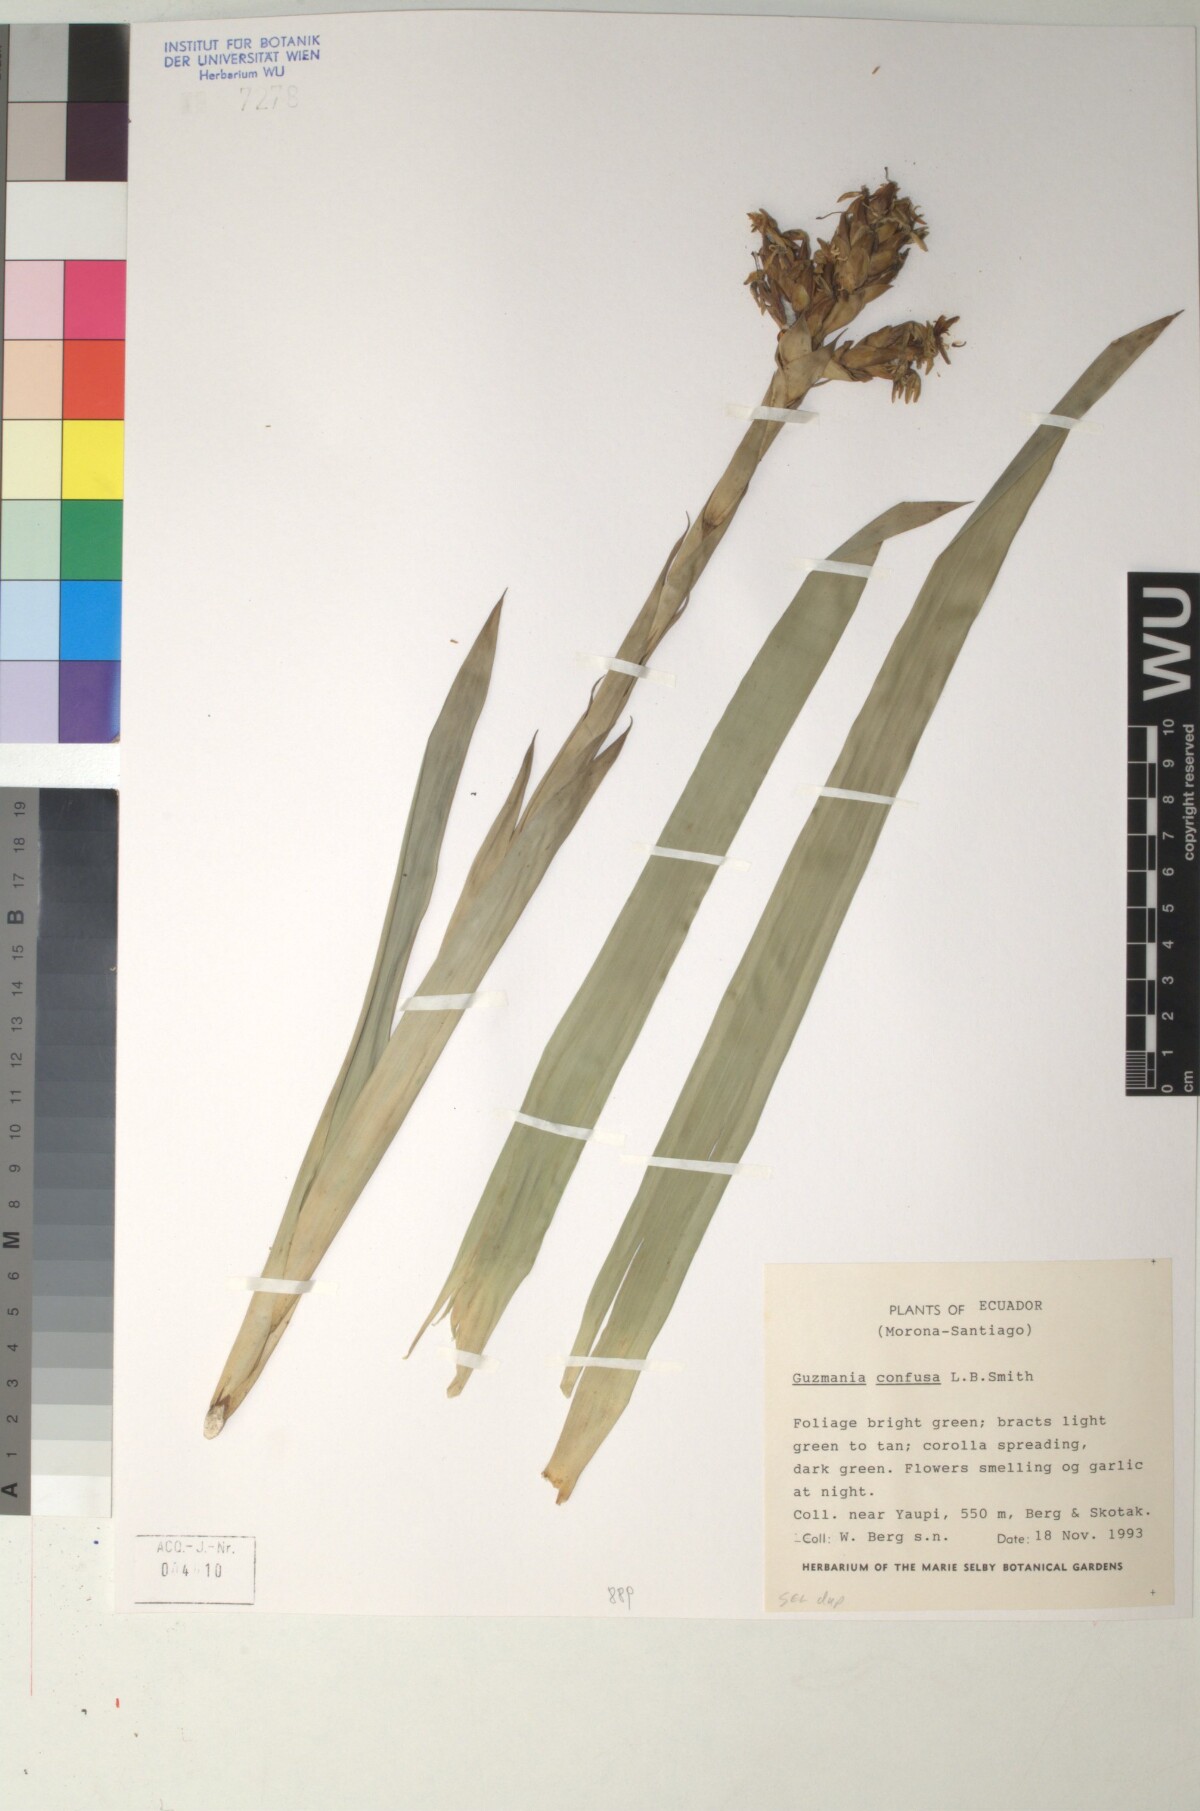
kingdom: Plantae
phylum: Tracheophyta
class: Liliopsida
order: Poales
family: Bromeliaceae
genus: Guzmania
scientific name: Guzmania confusa
